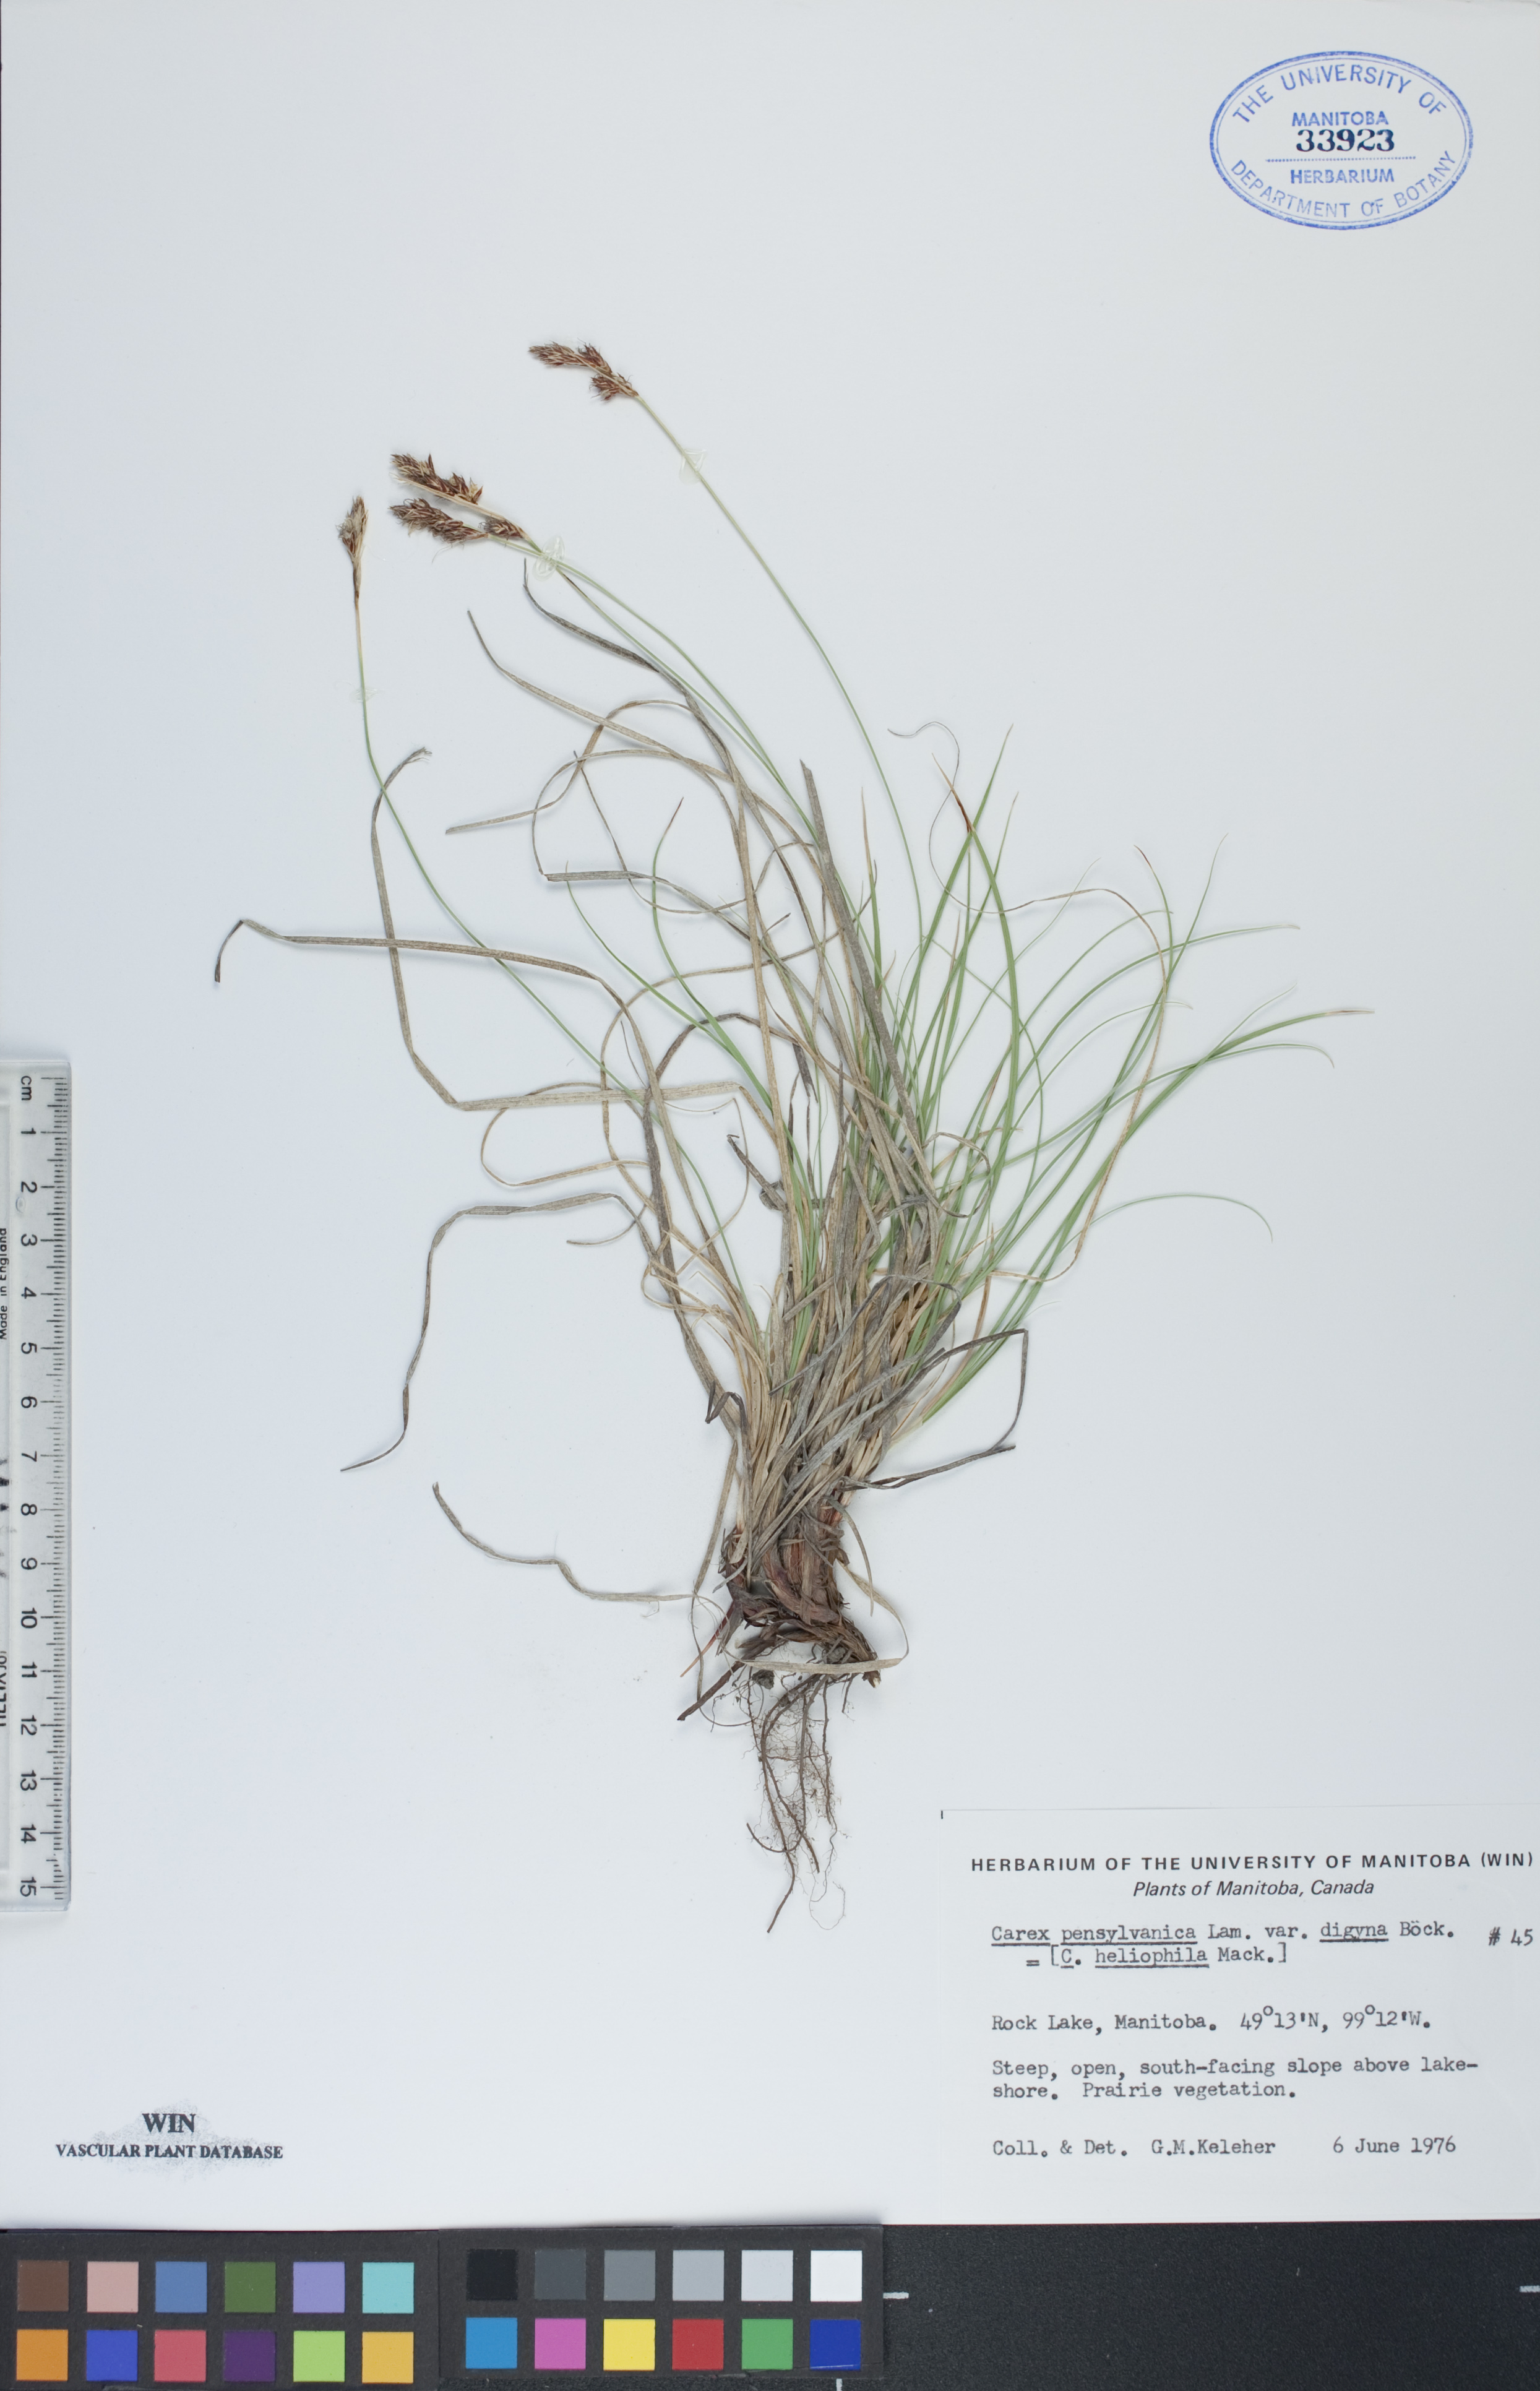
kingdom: Plantae
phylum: Tracheophyta
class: Liliopsida
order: Poales
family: Cyperaceae
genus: Carex
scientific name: Carex pensylvanica
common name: Common oak sedge
